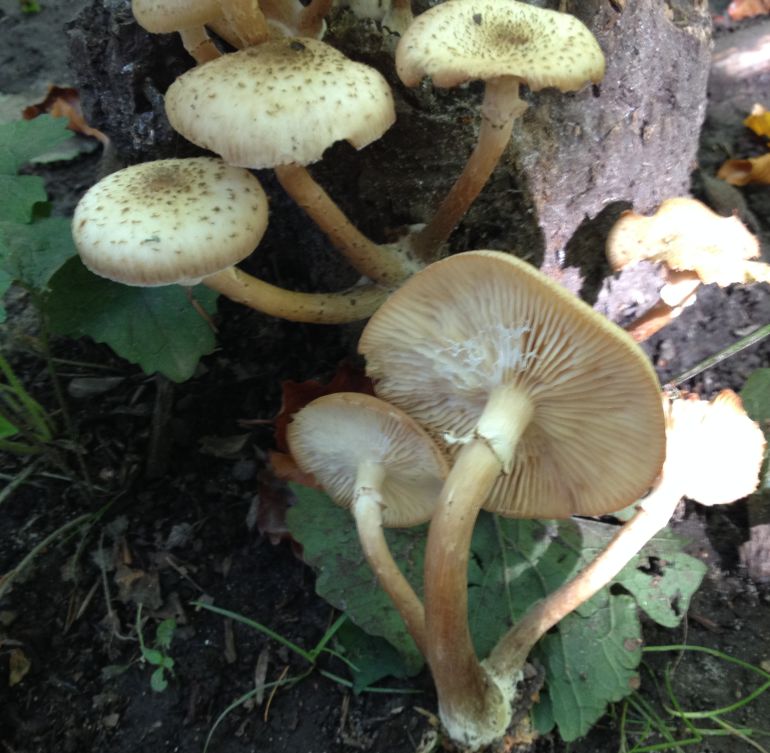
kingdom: Fungi
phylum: Basidiomycota
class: Agaricomycetes
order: Agaricales
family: Physalacriaceae
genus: Armillaria
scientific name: Armillaria mellea
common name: ægte honningsvamp
